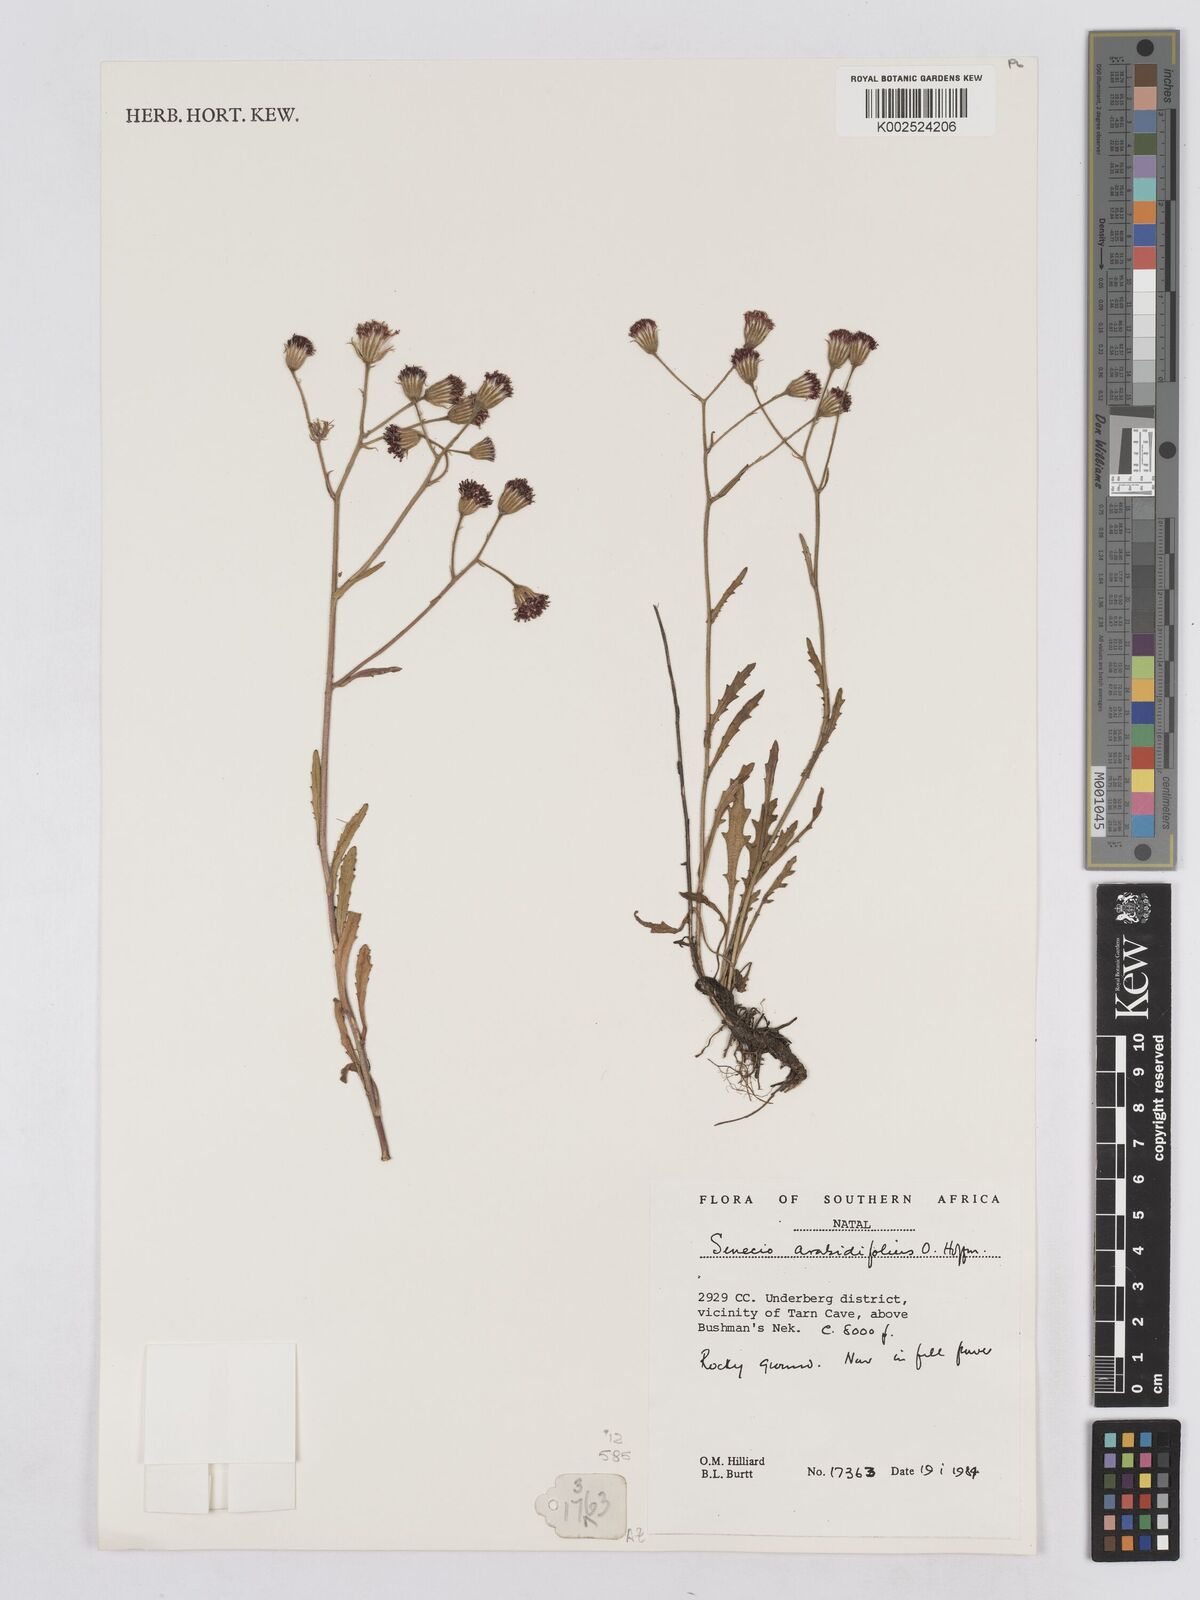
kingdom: Plantae
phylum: Tracheophyta
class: Magnoliopsida
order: Asterales
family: Asteraceae
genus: Senecio
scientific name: Senecio arabidifolius
